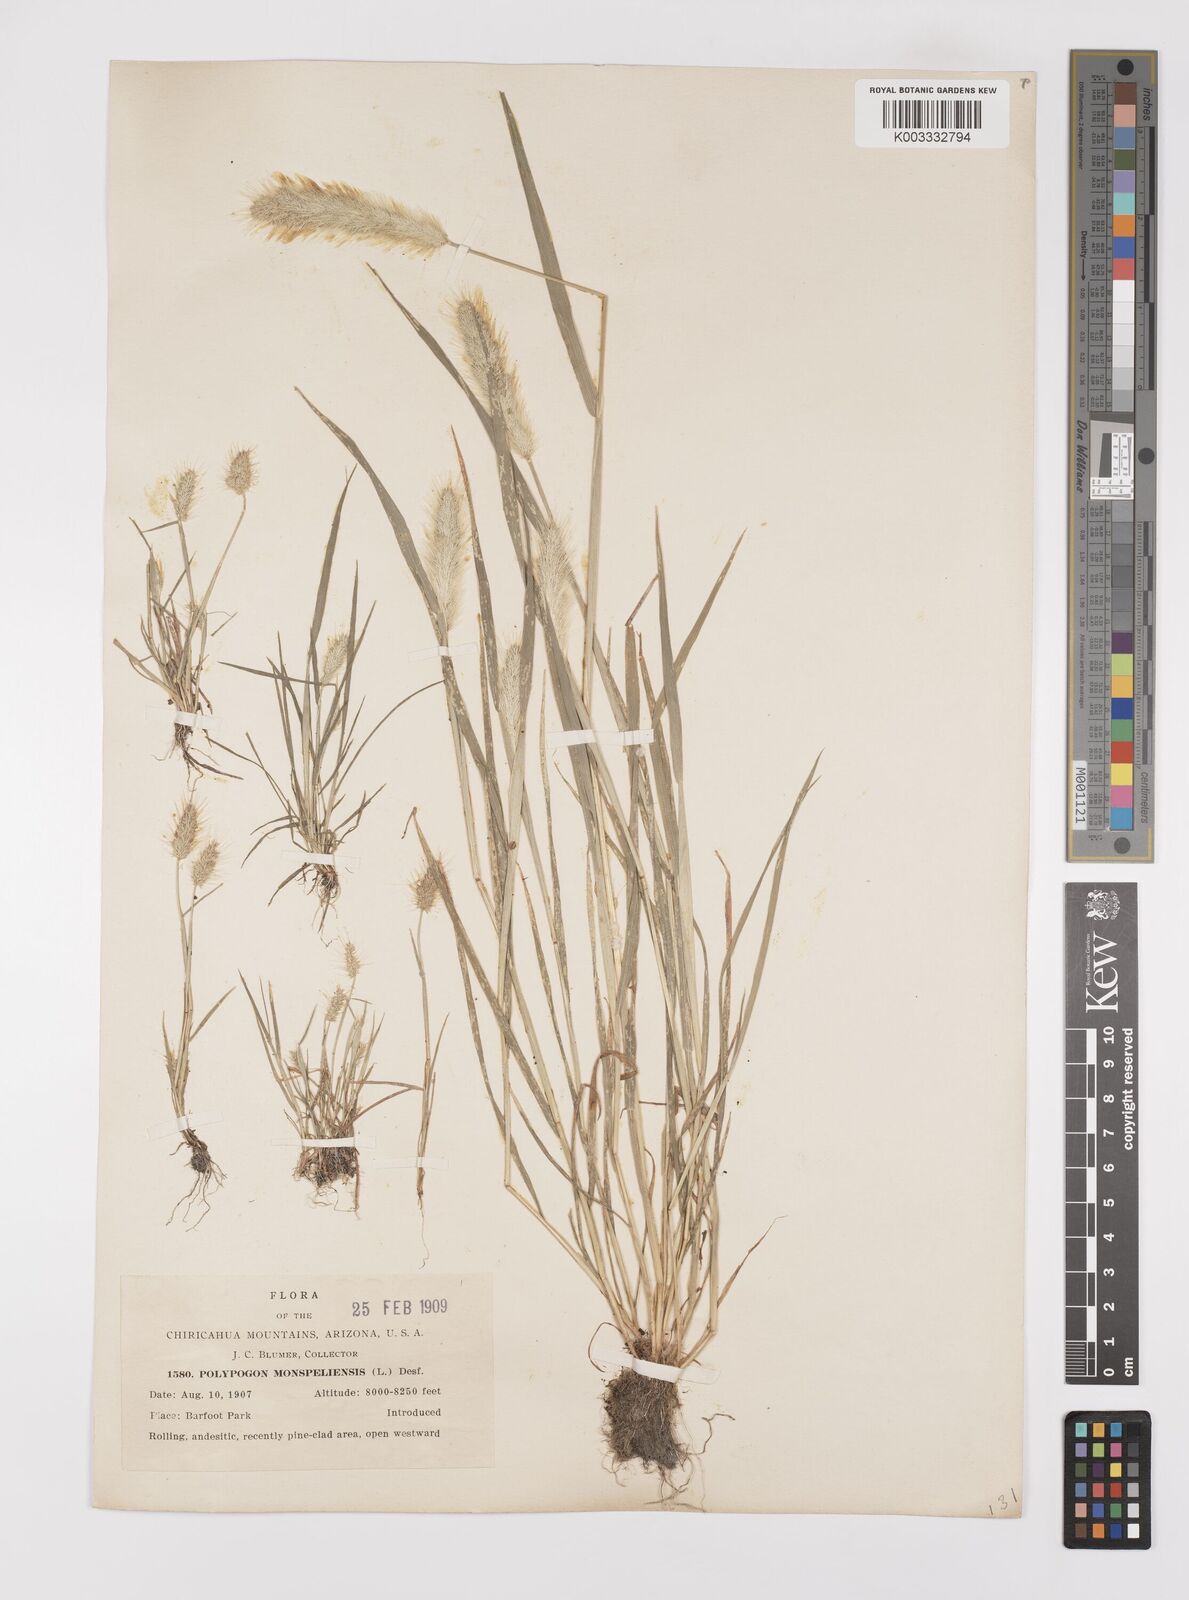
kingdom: Plantae
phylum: Tracheophyta
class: Liliopsida
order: Poales
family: Poaceae
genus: Polypogon
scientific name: Polypogon monspeliensis
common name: Annual rabbitsfoot grass
